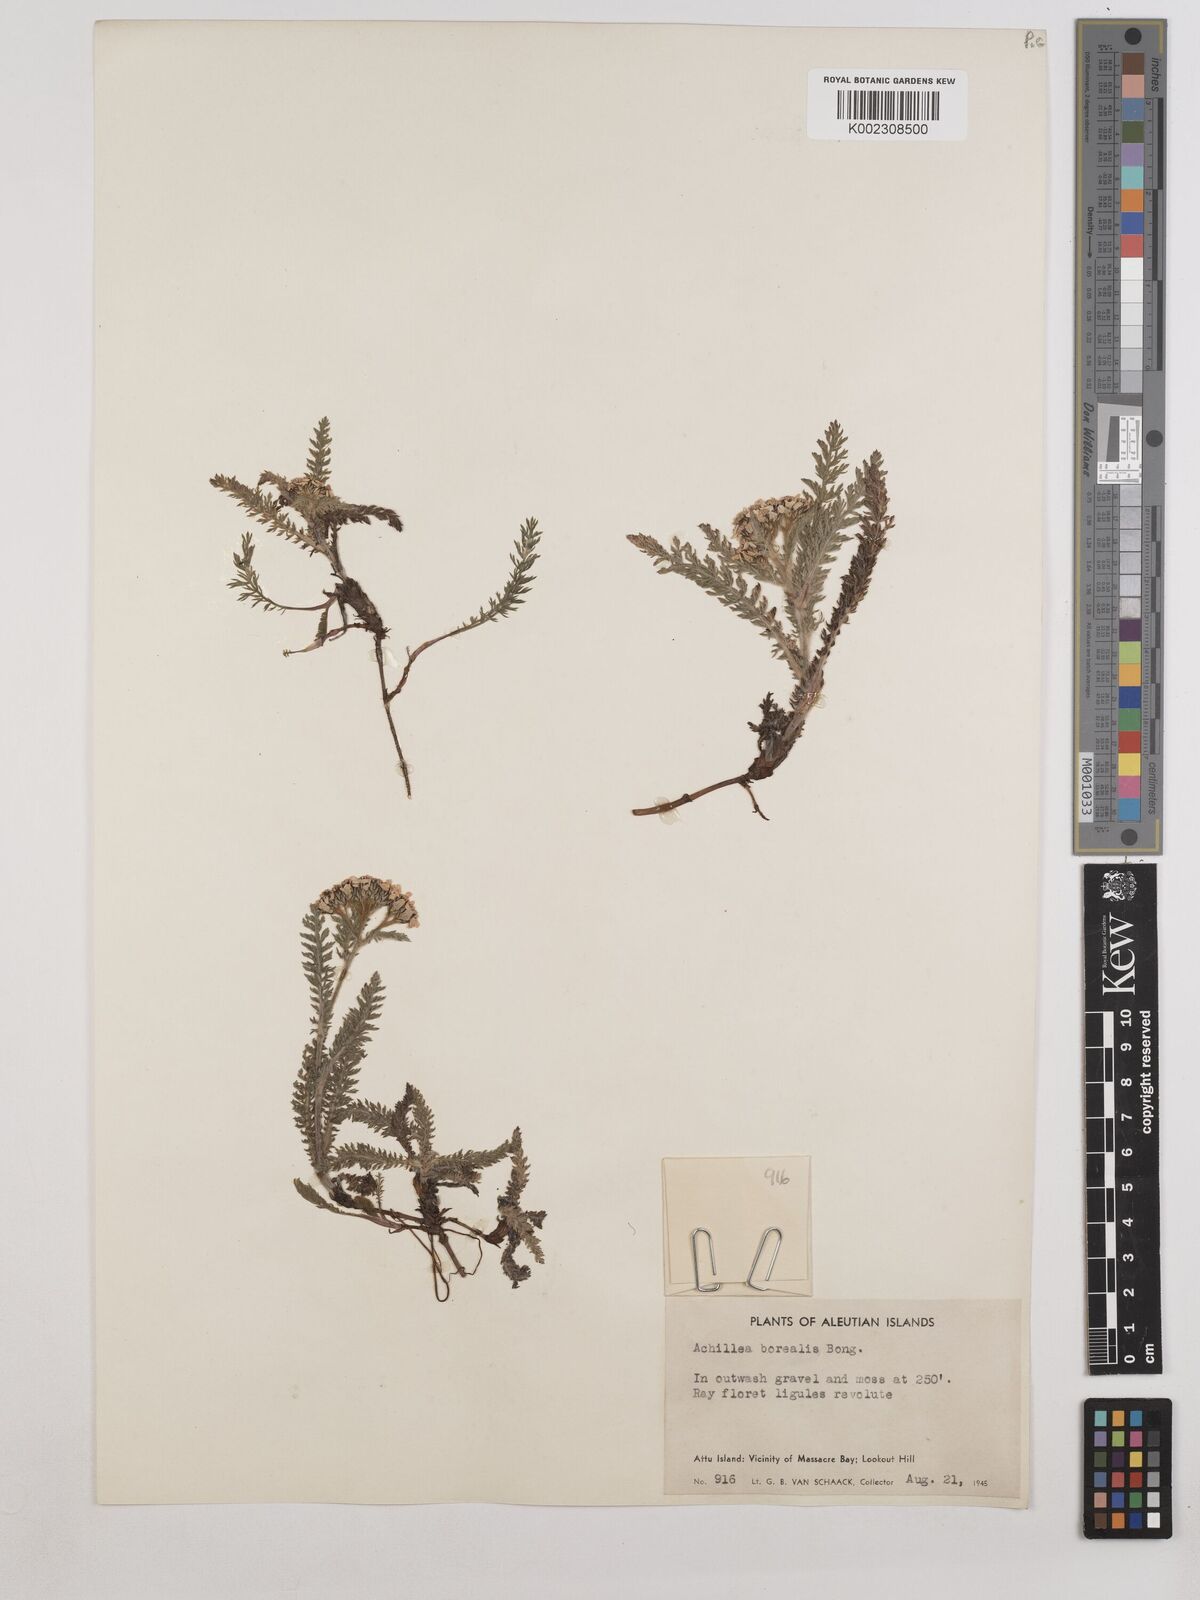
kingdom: Plantae
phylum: Tracheophyta
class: Magnoliopsida
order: Asterales
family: Asteraceae
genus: Achillea
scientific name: Achillea millefolium
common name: Yarrow
